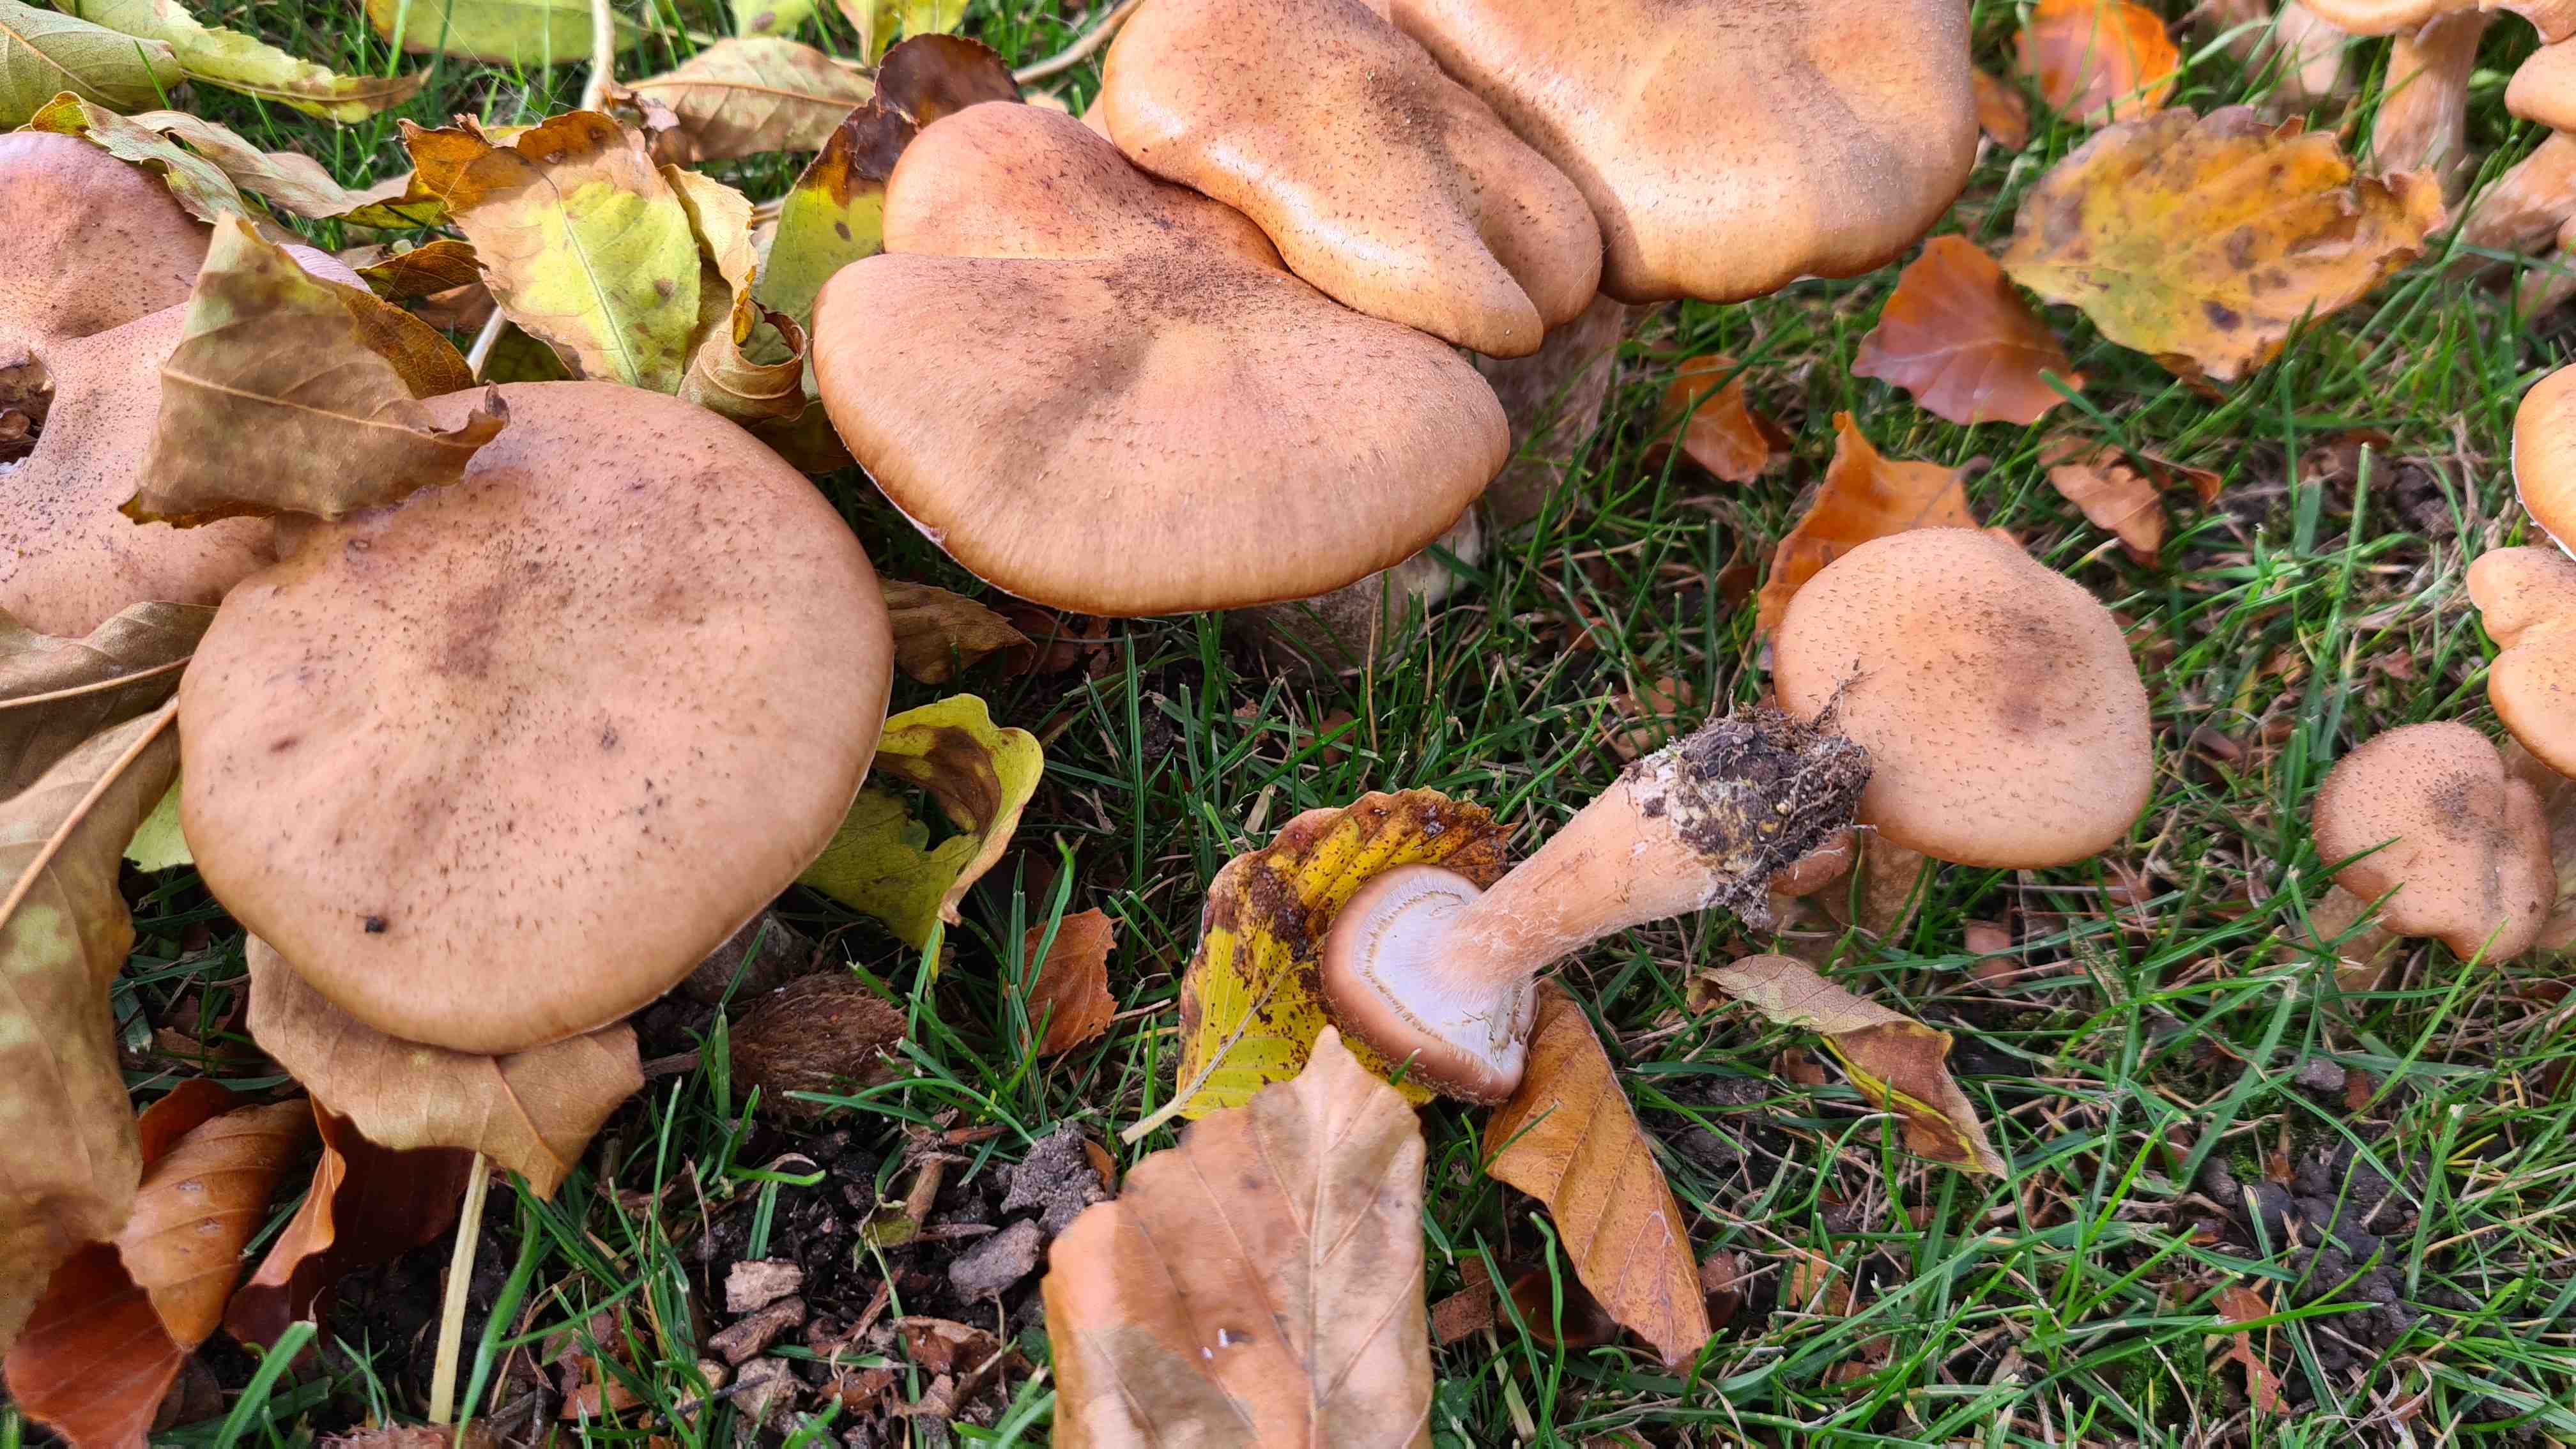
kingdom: Fungi
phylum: Basidiomycota
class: Agaricomycetes
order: Agaricales
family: Physalacriaceae
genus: Armillaria
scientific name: Armillaria lutea
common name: køllestokket honningsvamp
